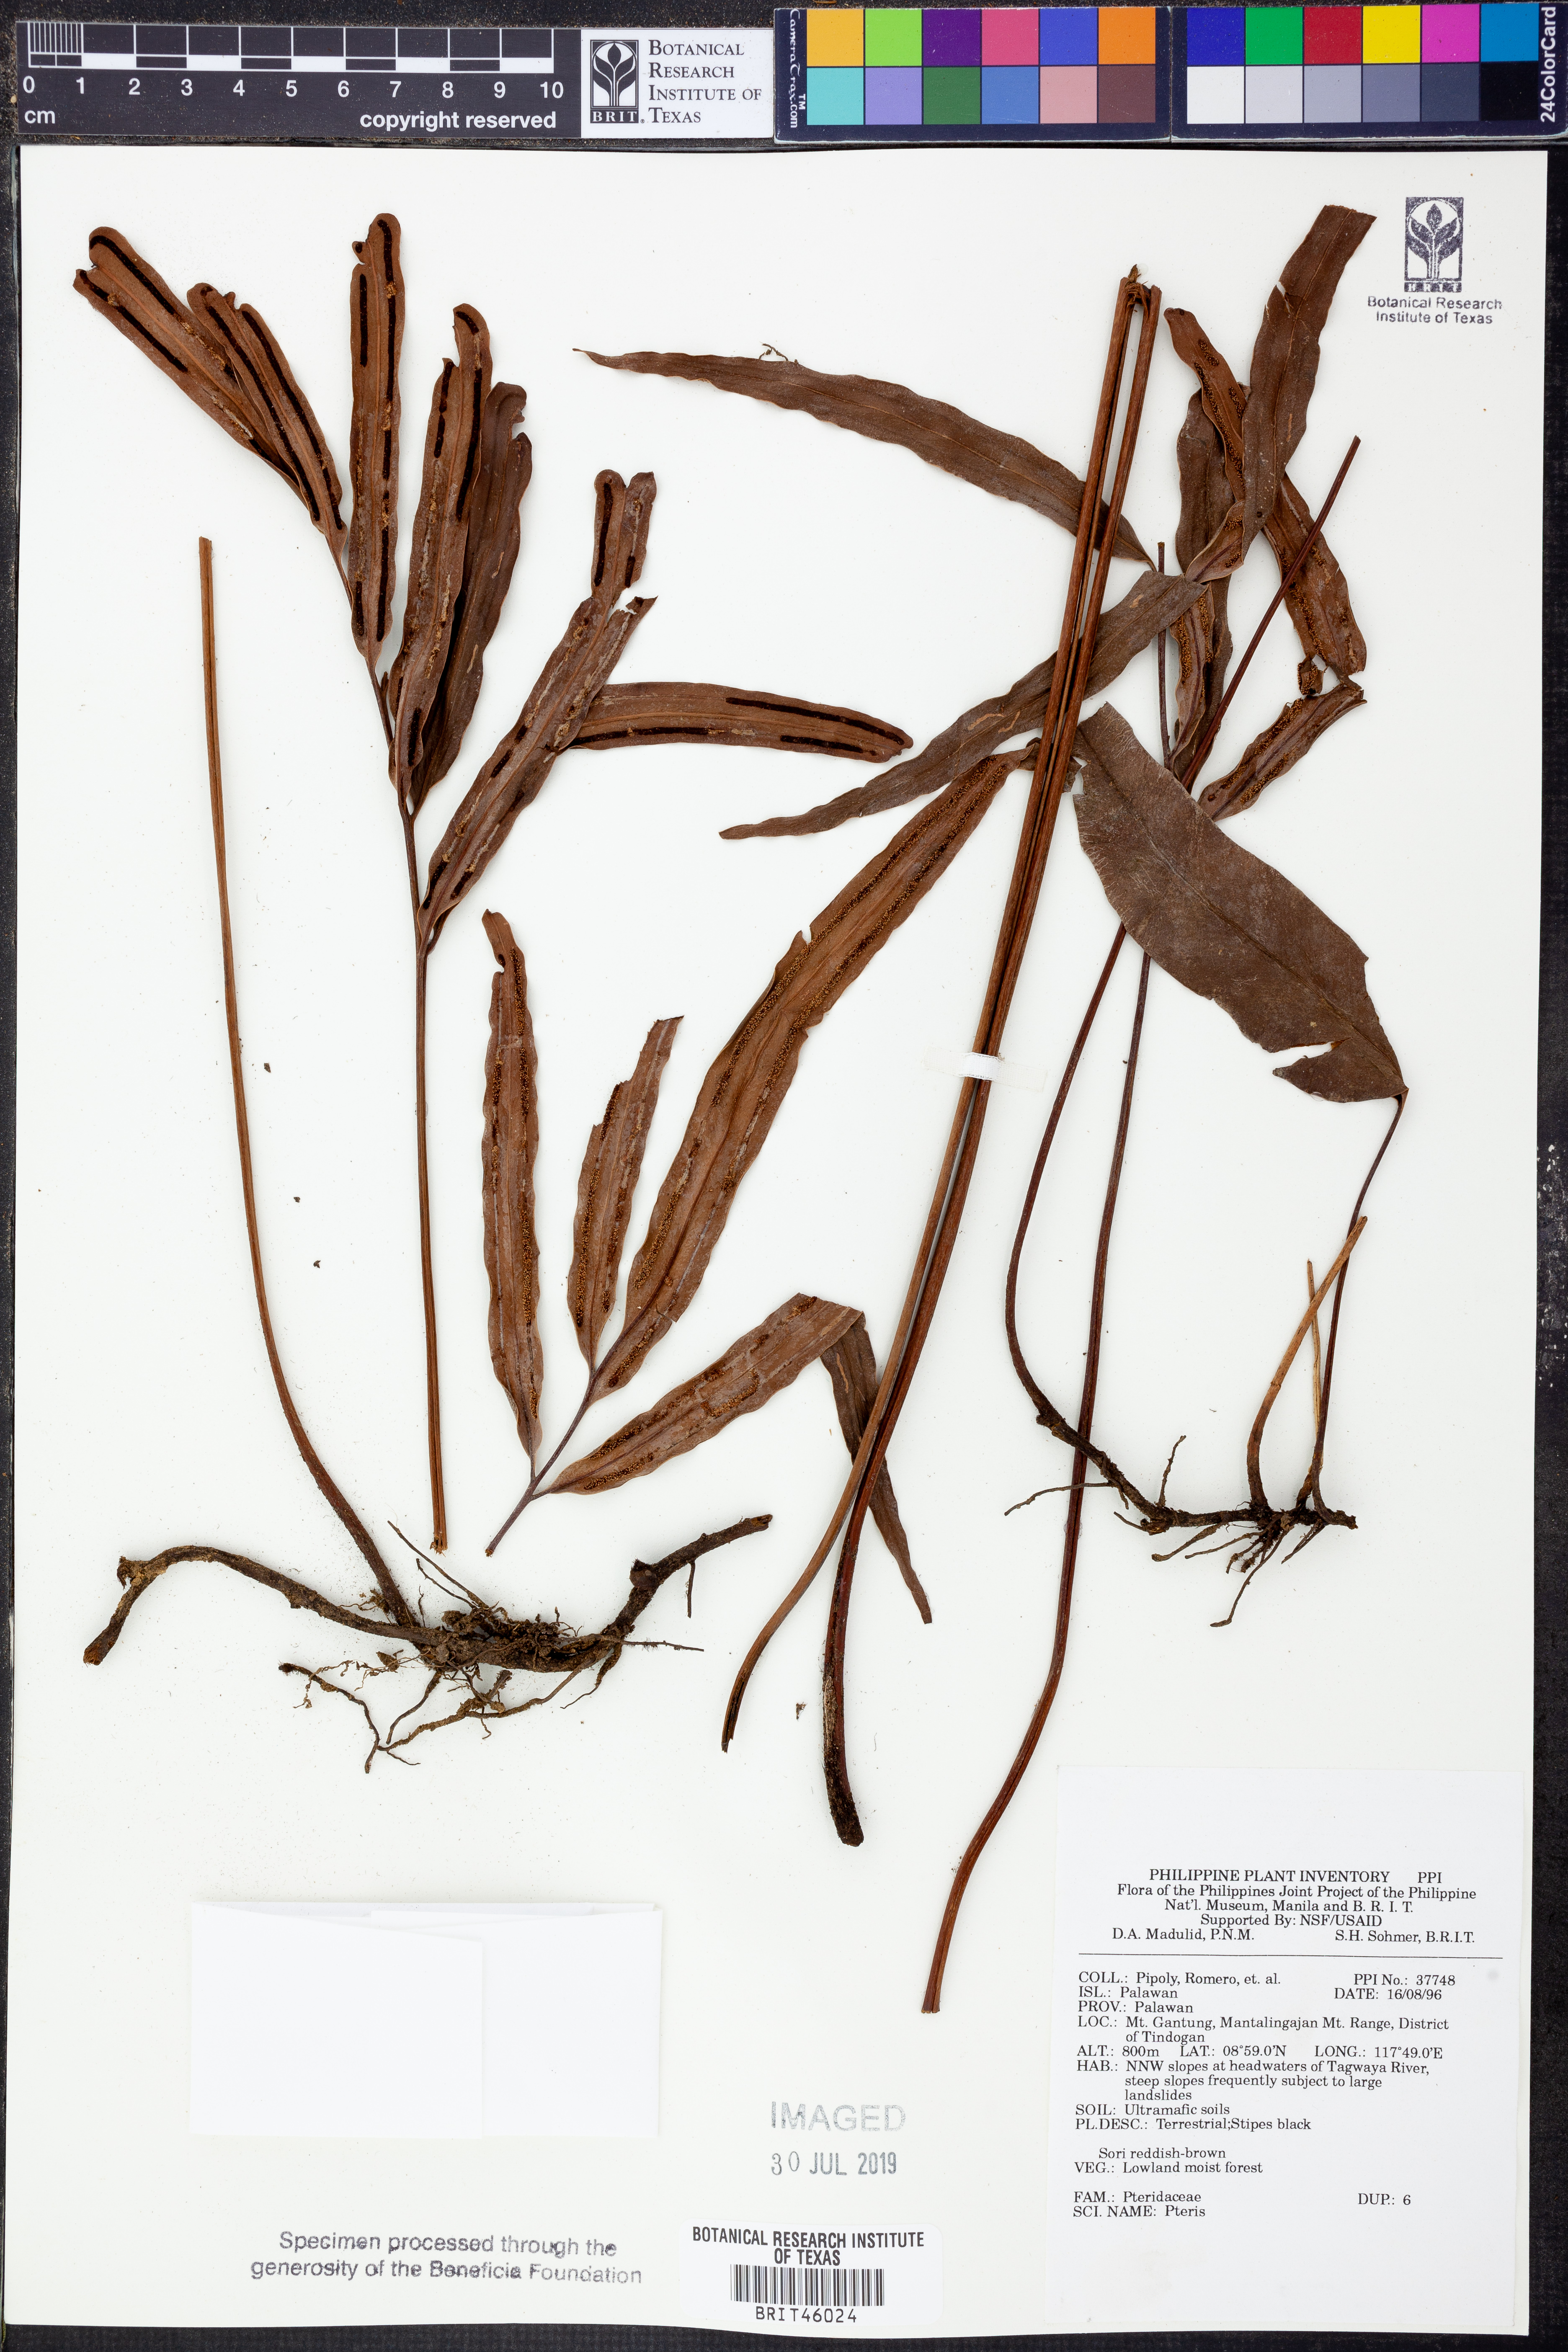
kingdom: Plantae
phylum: Tracheophyta
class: Polypodiopsida
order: Polypodiales
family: Pteridaceae
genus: Pteris
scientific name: Pteris
